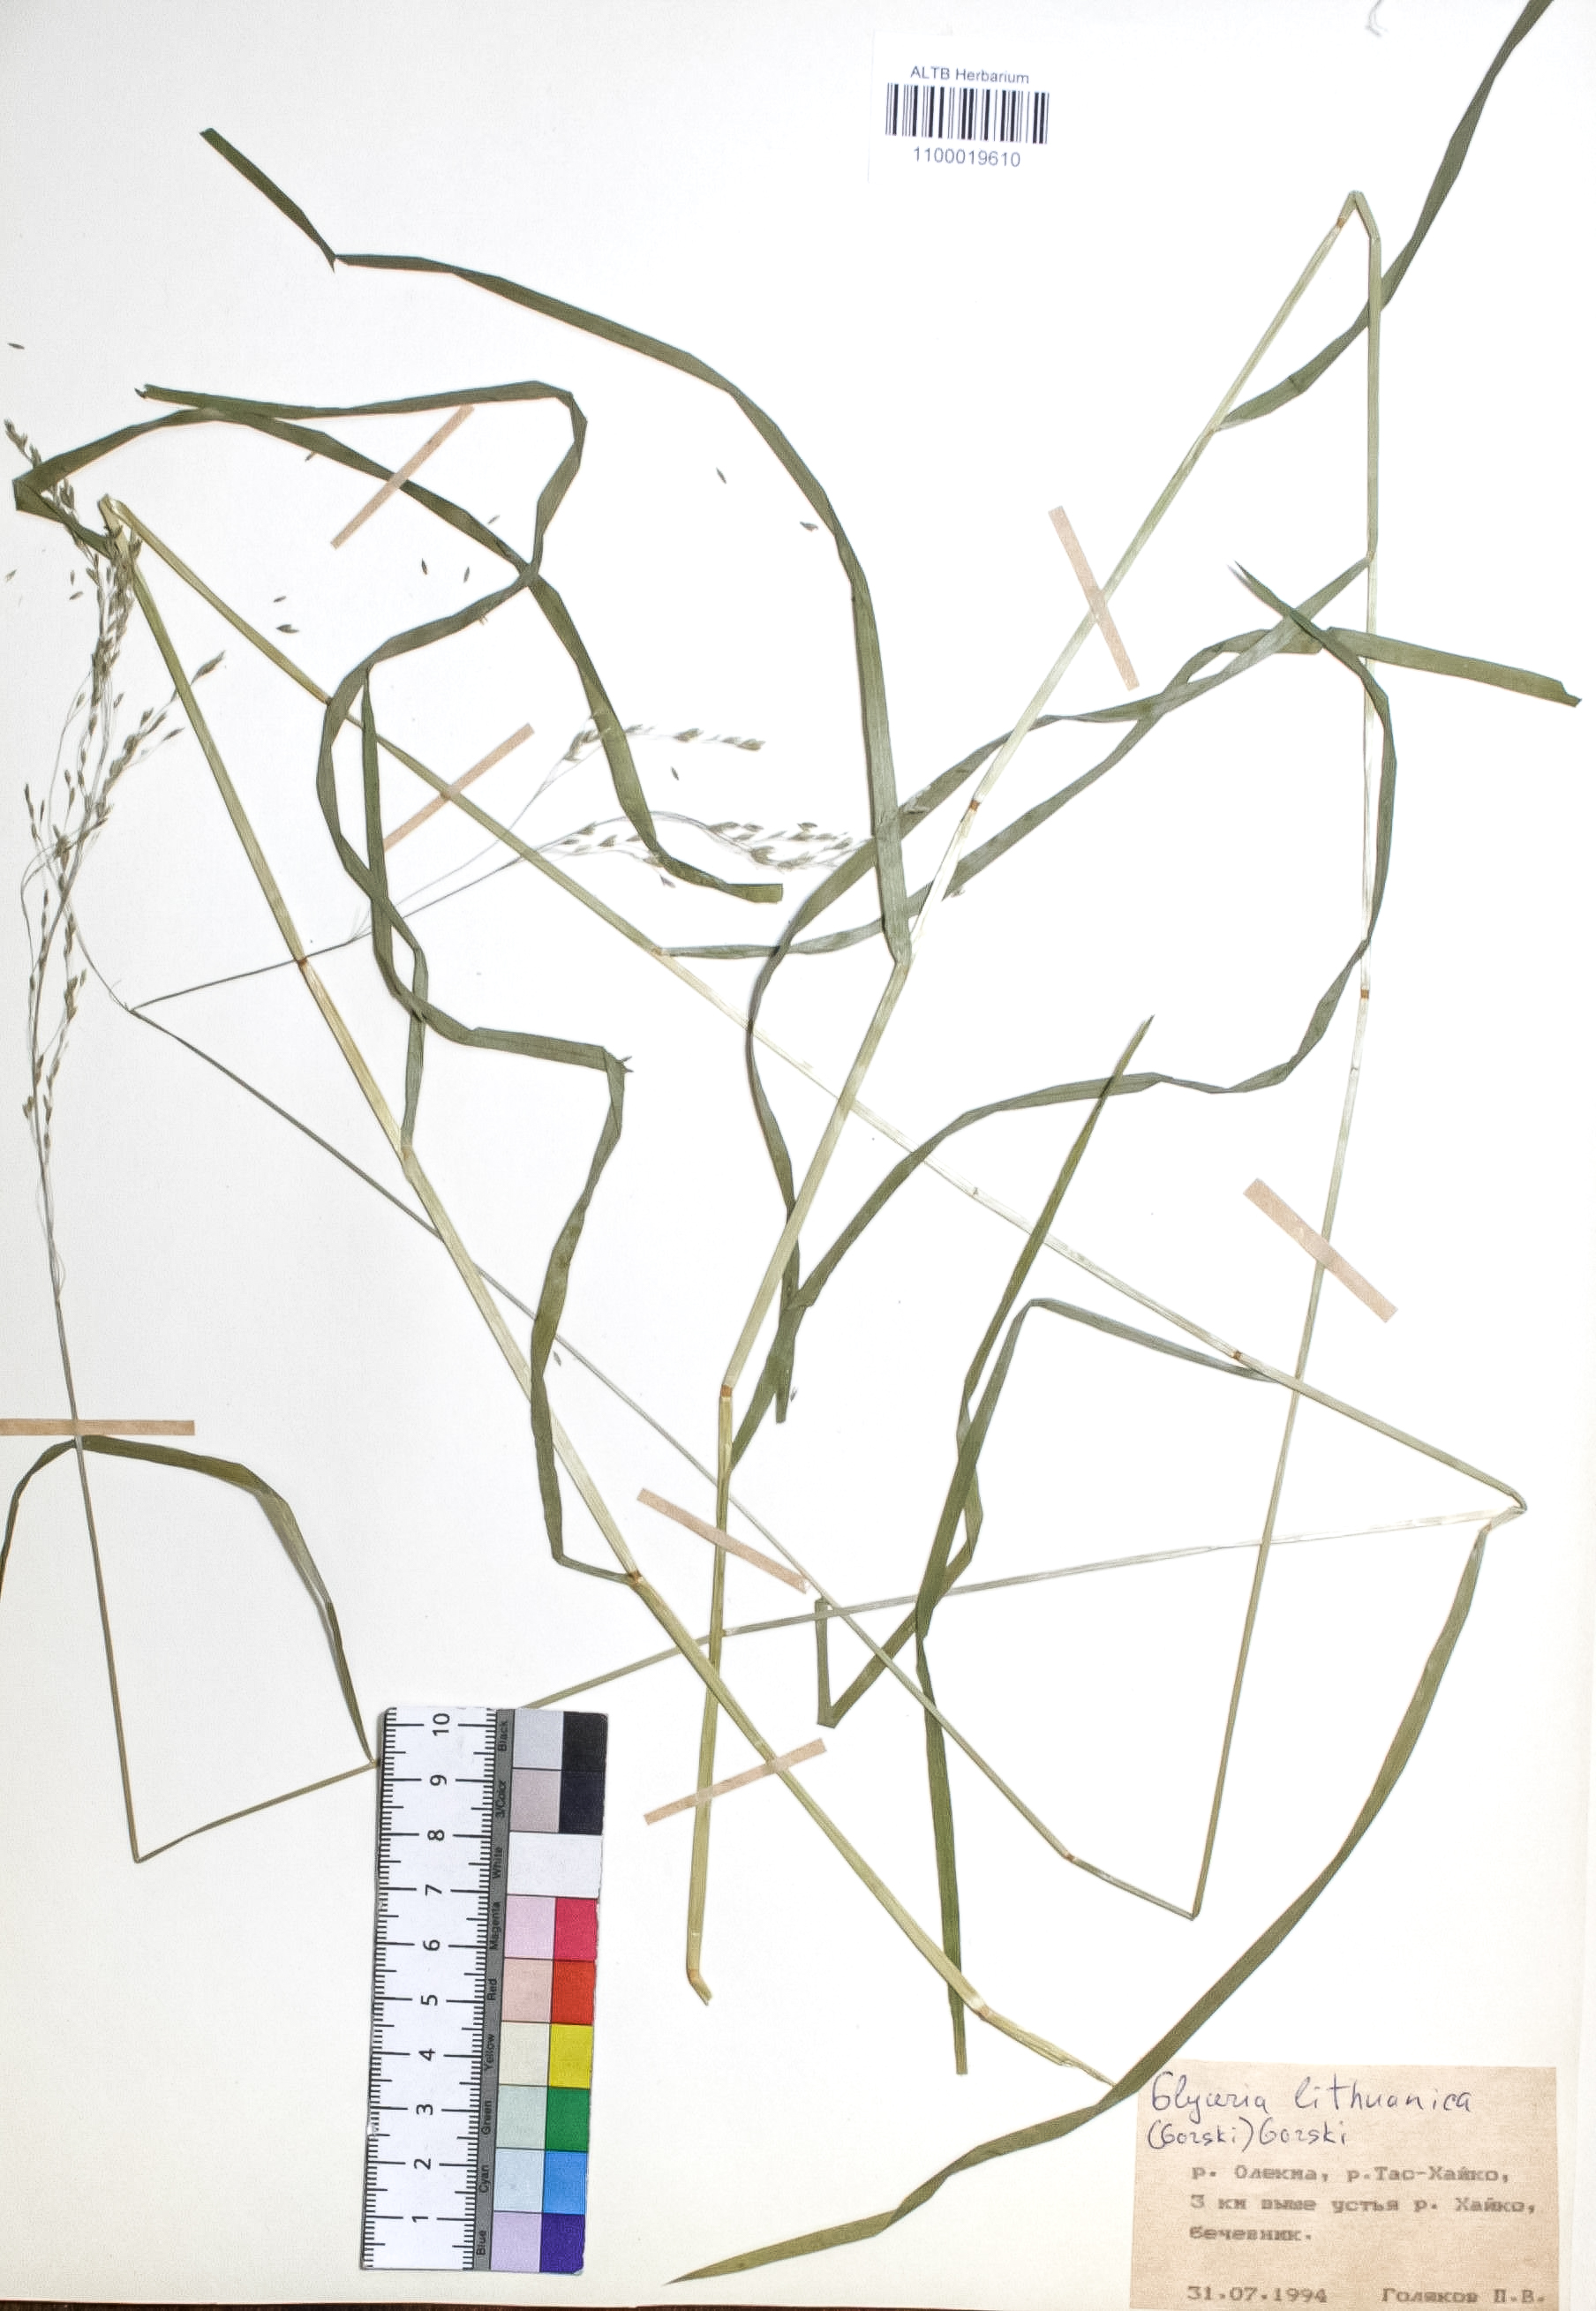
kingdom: Plantae
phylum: Tracheophyta
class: Liliopsida
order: Poales
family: Poaceae
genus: Glyceria
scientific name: Glyceria lithuanica
